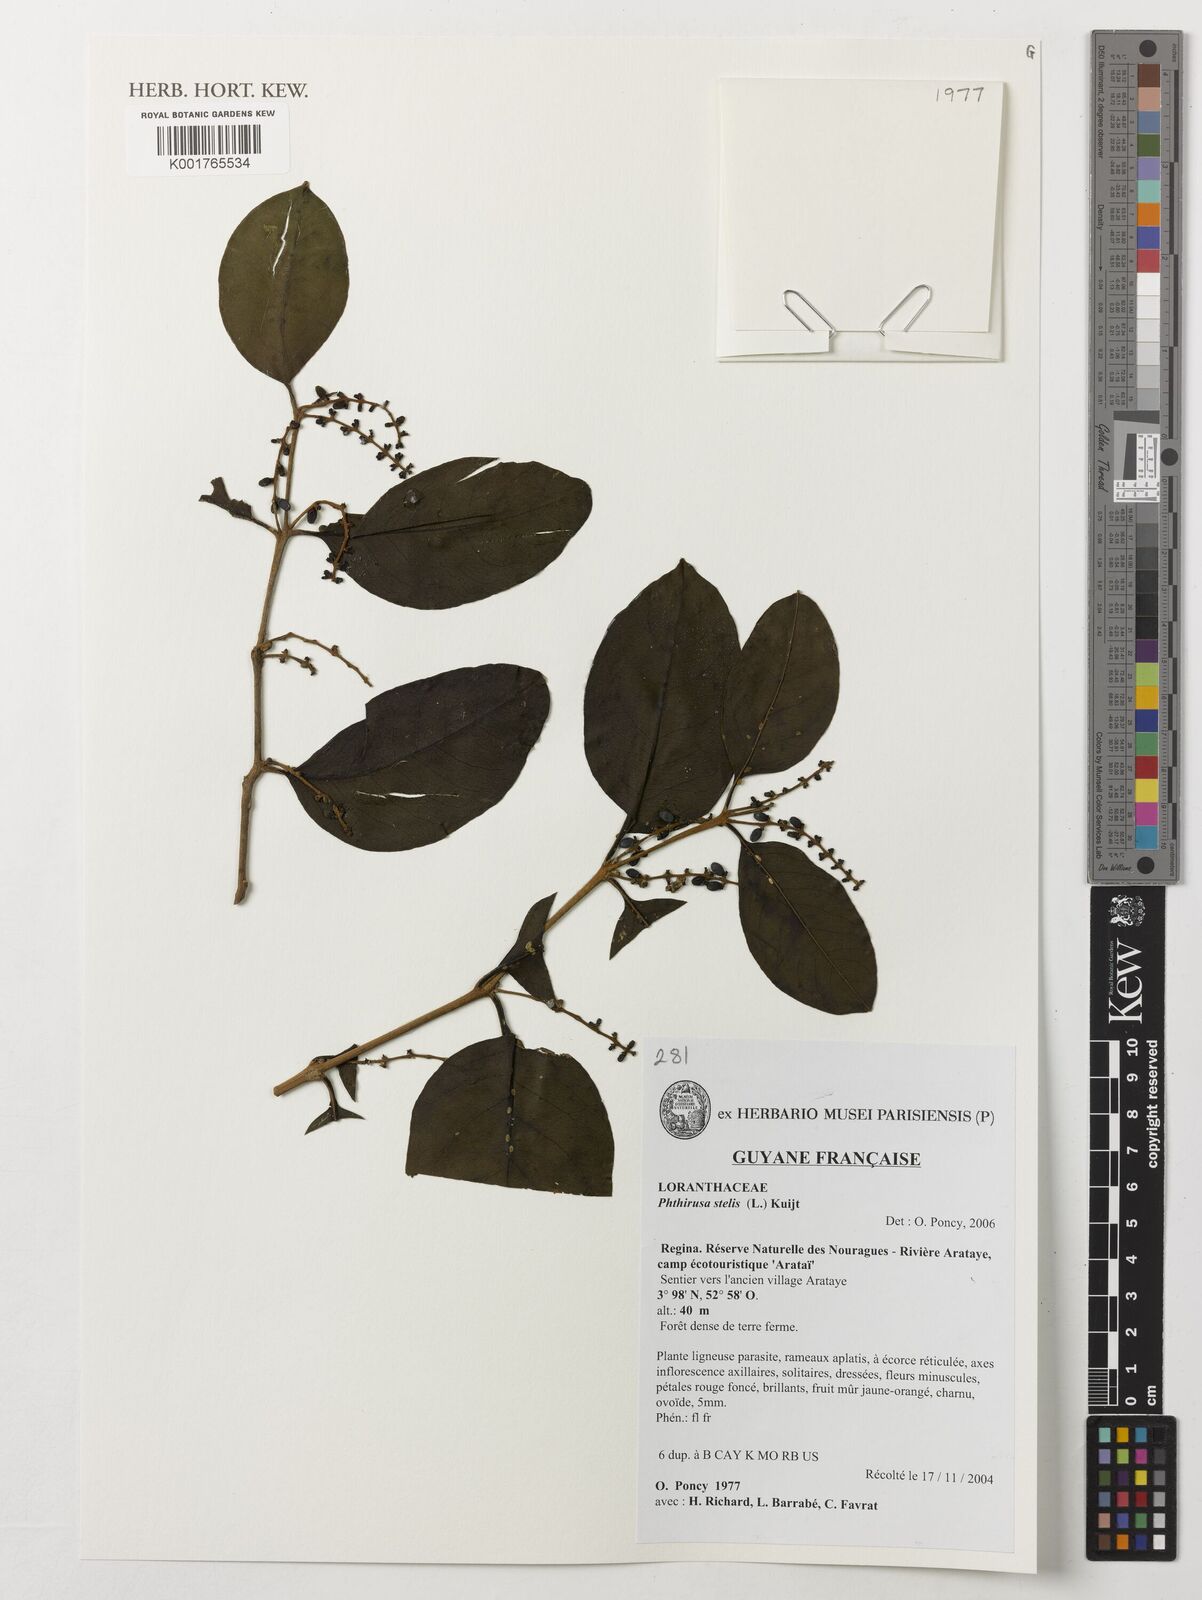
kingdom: Plantae
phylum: Tracheophyta
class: Magnoliopsida
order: Santalales
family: Loranthaceae
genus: Passovia
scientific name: Passovia pedunculata
